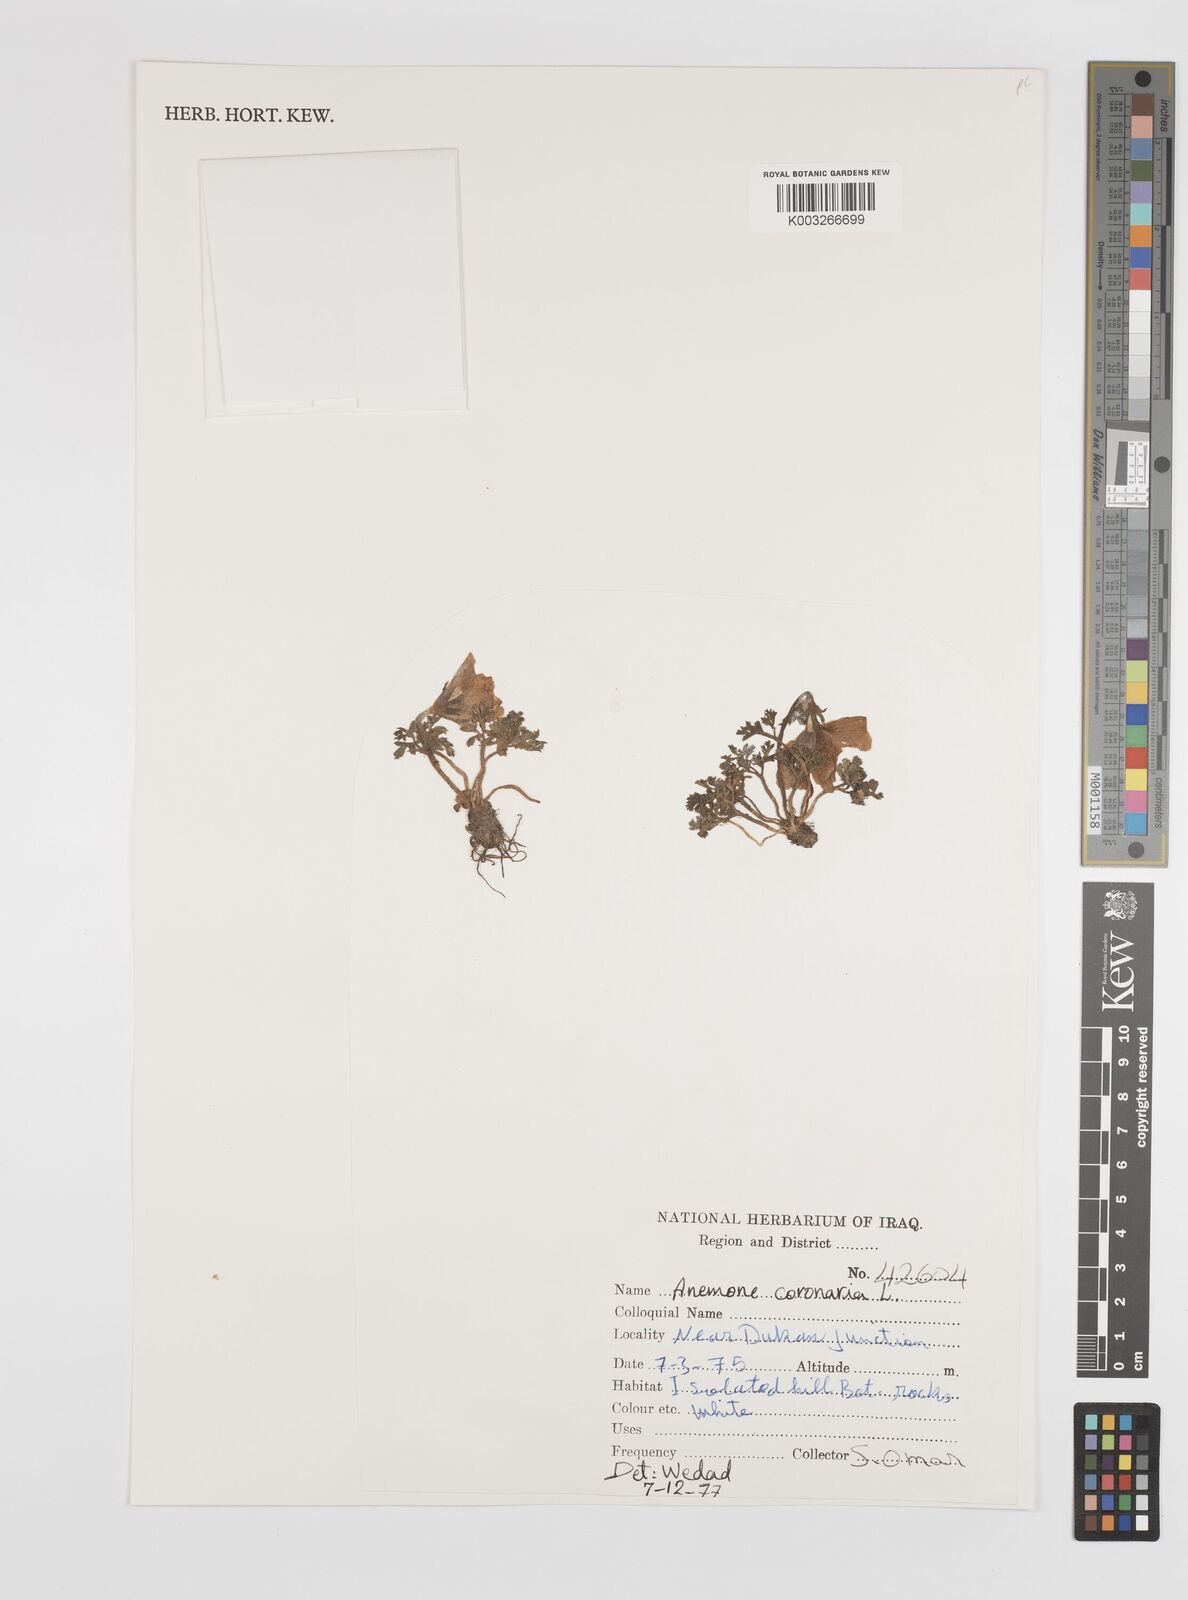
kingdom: Plantae
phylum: Tracheophyta
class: Magnoliopsida
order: Ranunculales
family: Ranunculaceae
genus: Anemone
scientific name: Anemone coronaria
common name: Poppy anemone
